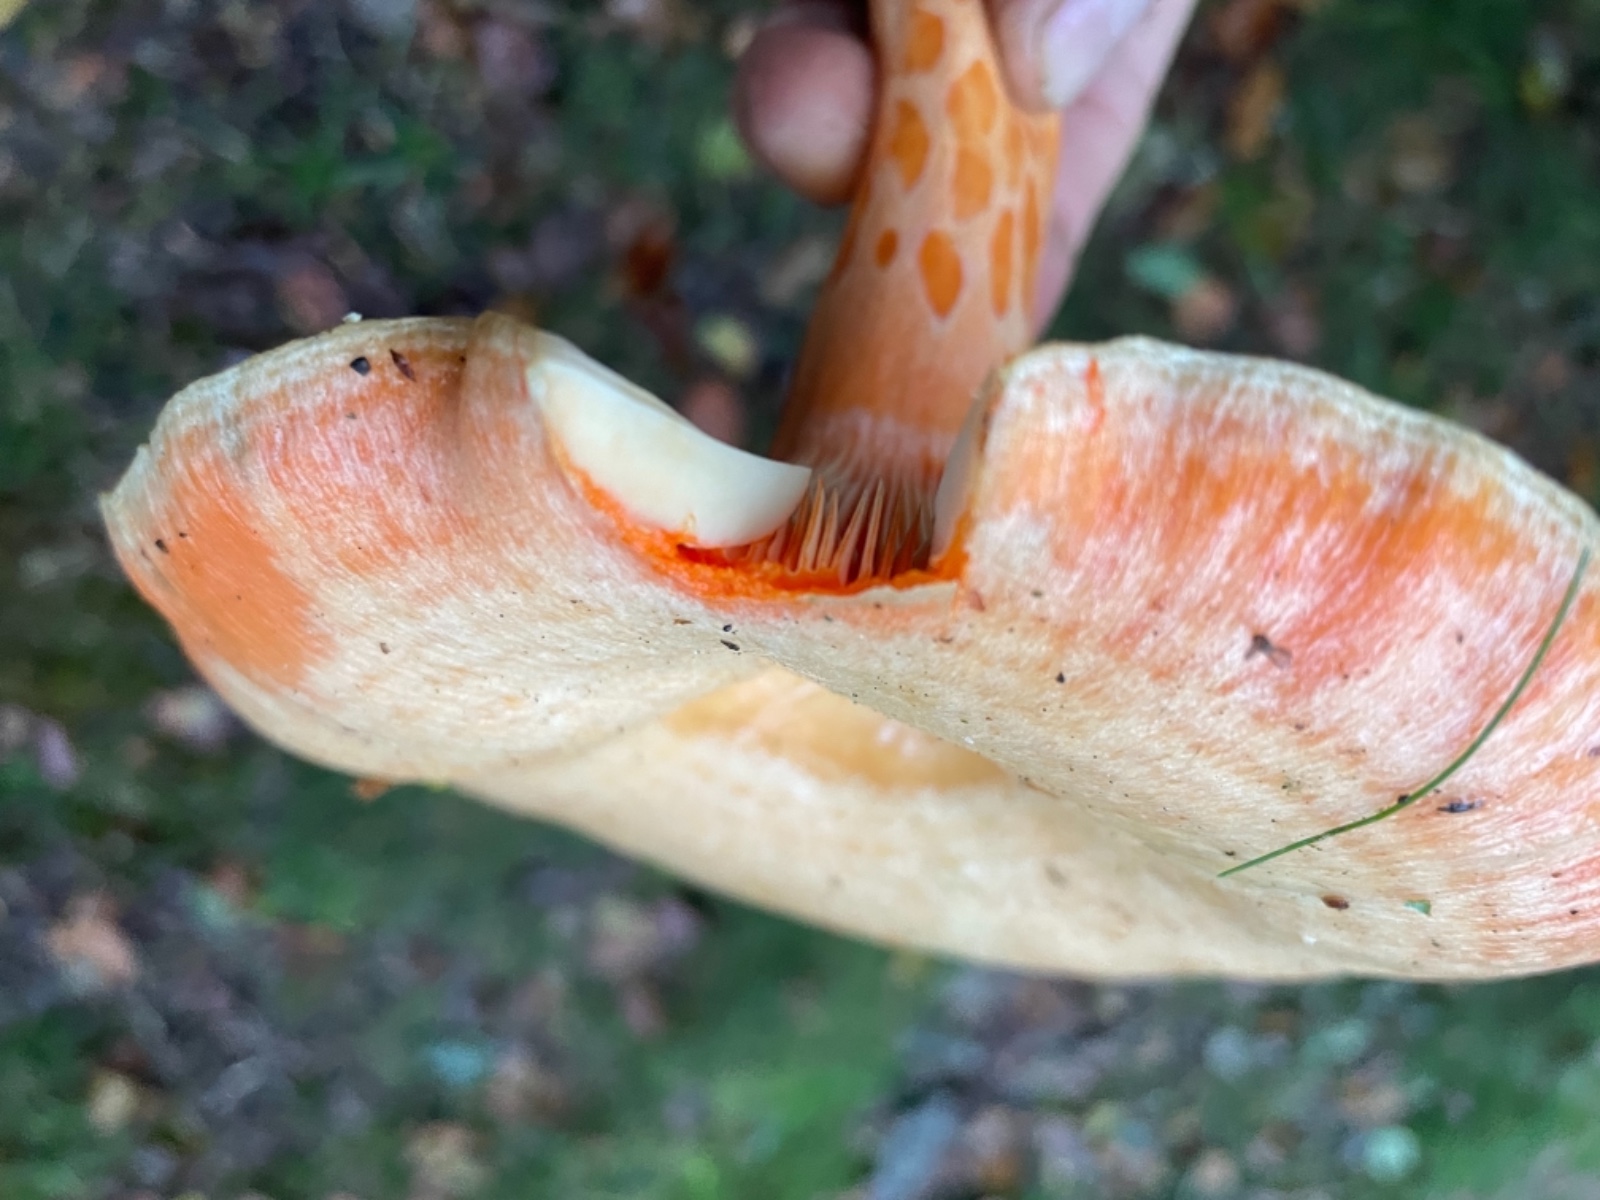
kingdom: Fungi
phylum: Basidiomycota
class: Agaricomycetes
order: Russulales
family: Russulaceae
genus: Lactarius
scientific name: Lactarius salmonicolor
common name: laksefarvet mælkehat
